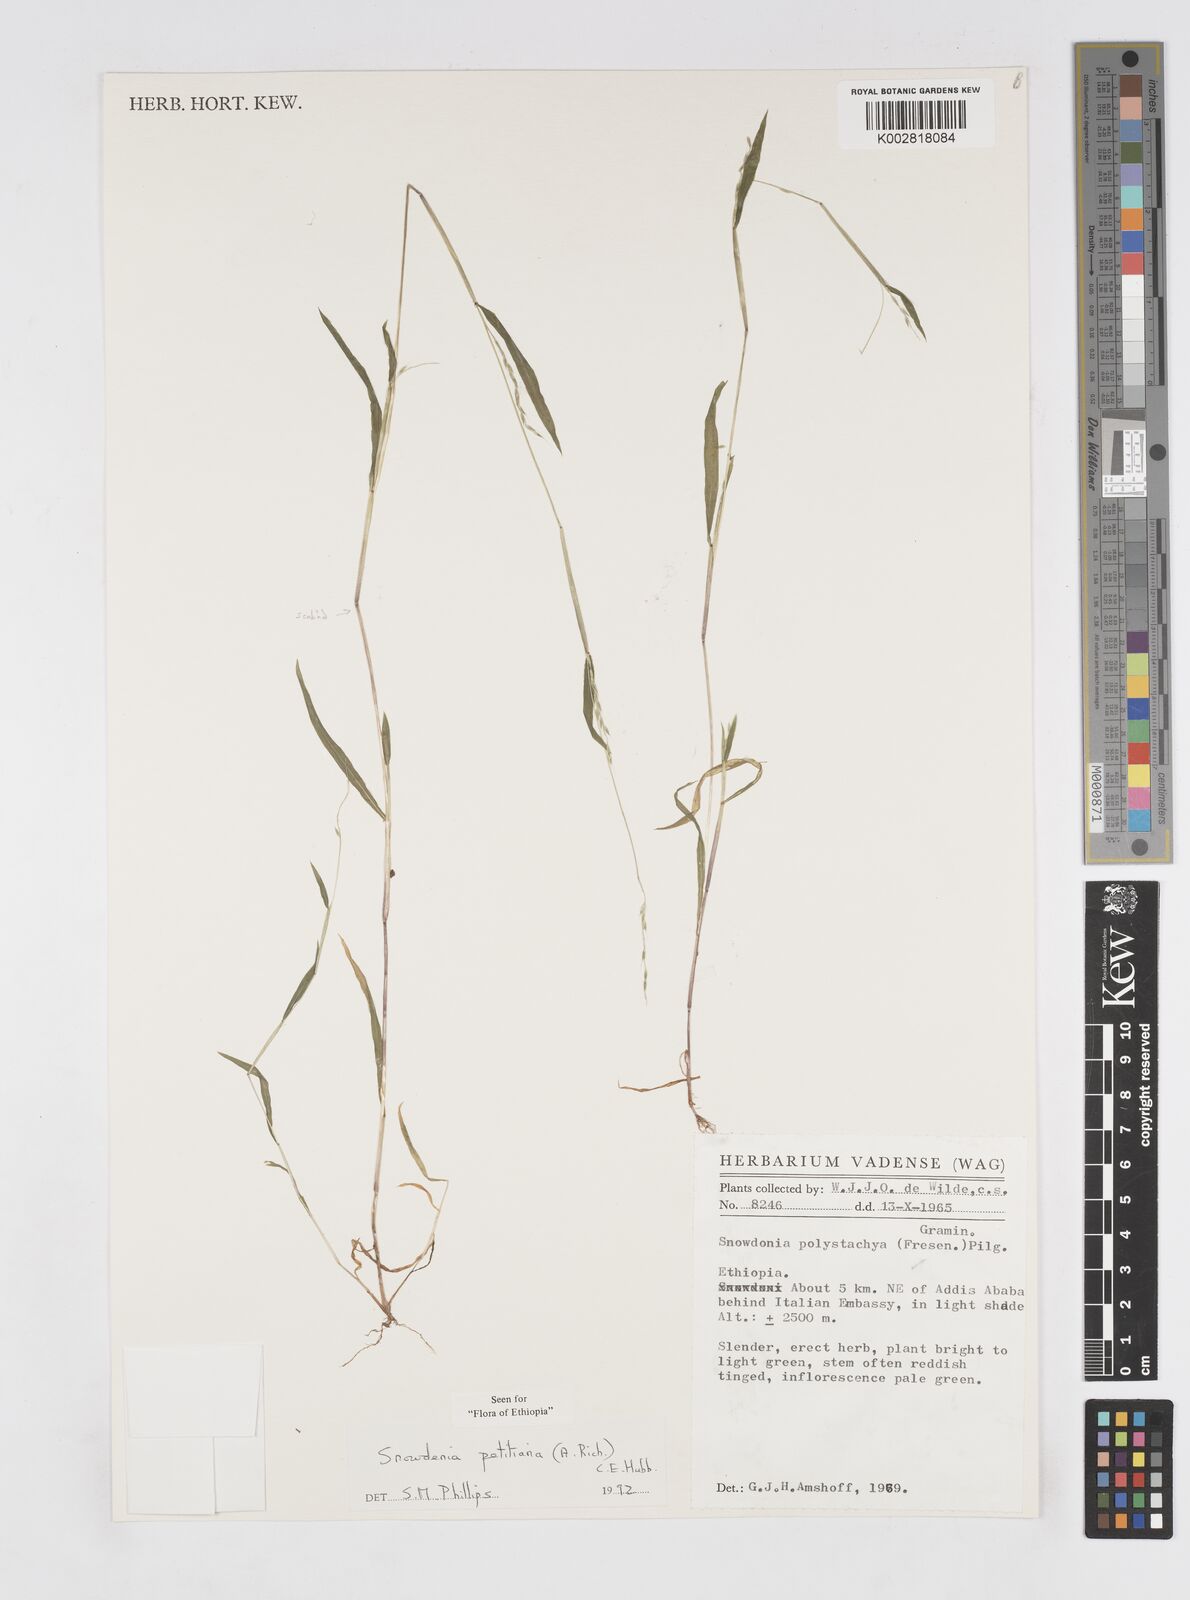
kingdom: Plantae
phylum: Tracheophyta
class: Liliopsida
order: Poales
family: Poaceae
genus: Snowdenia
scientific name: Snowdenia petitiana
